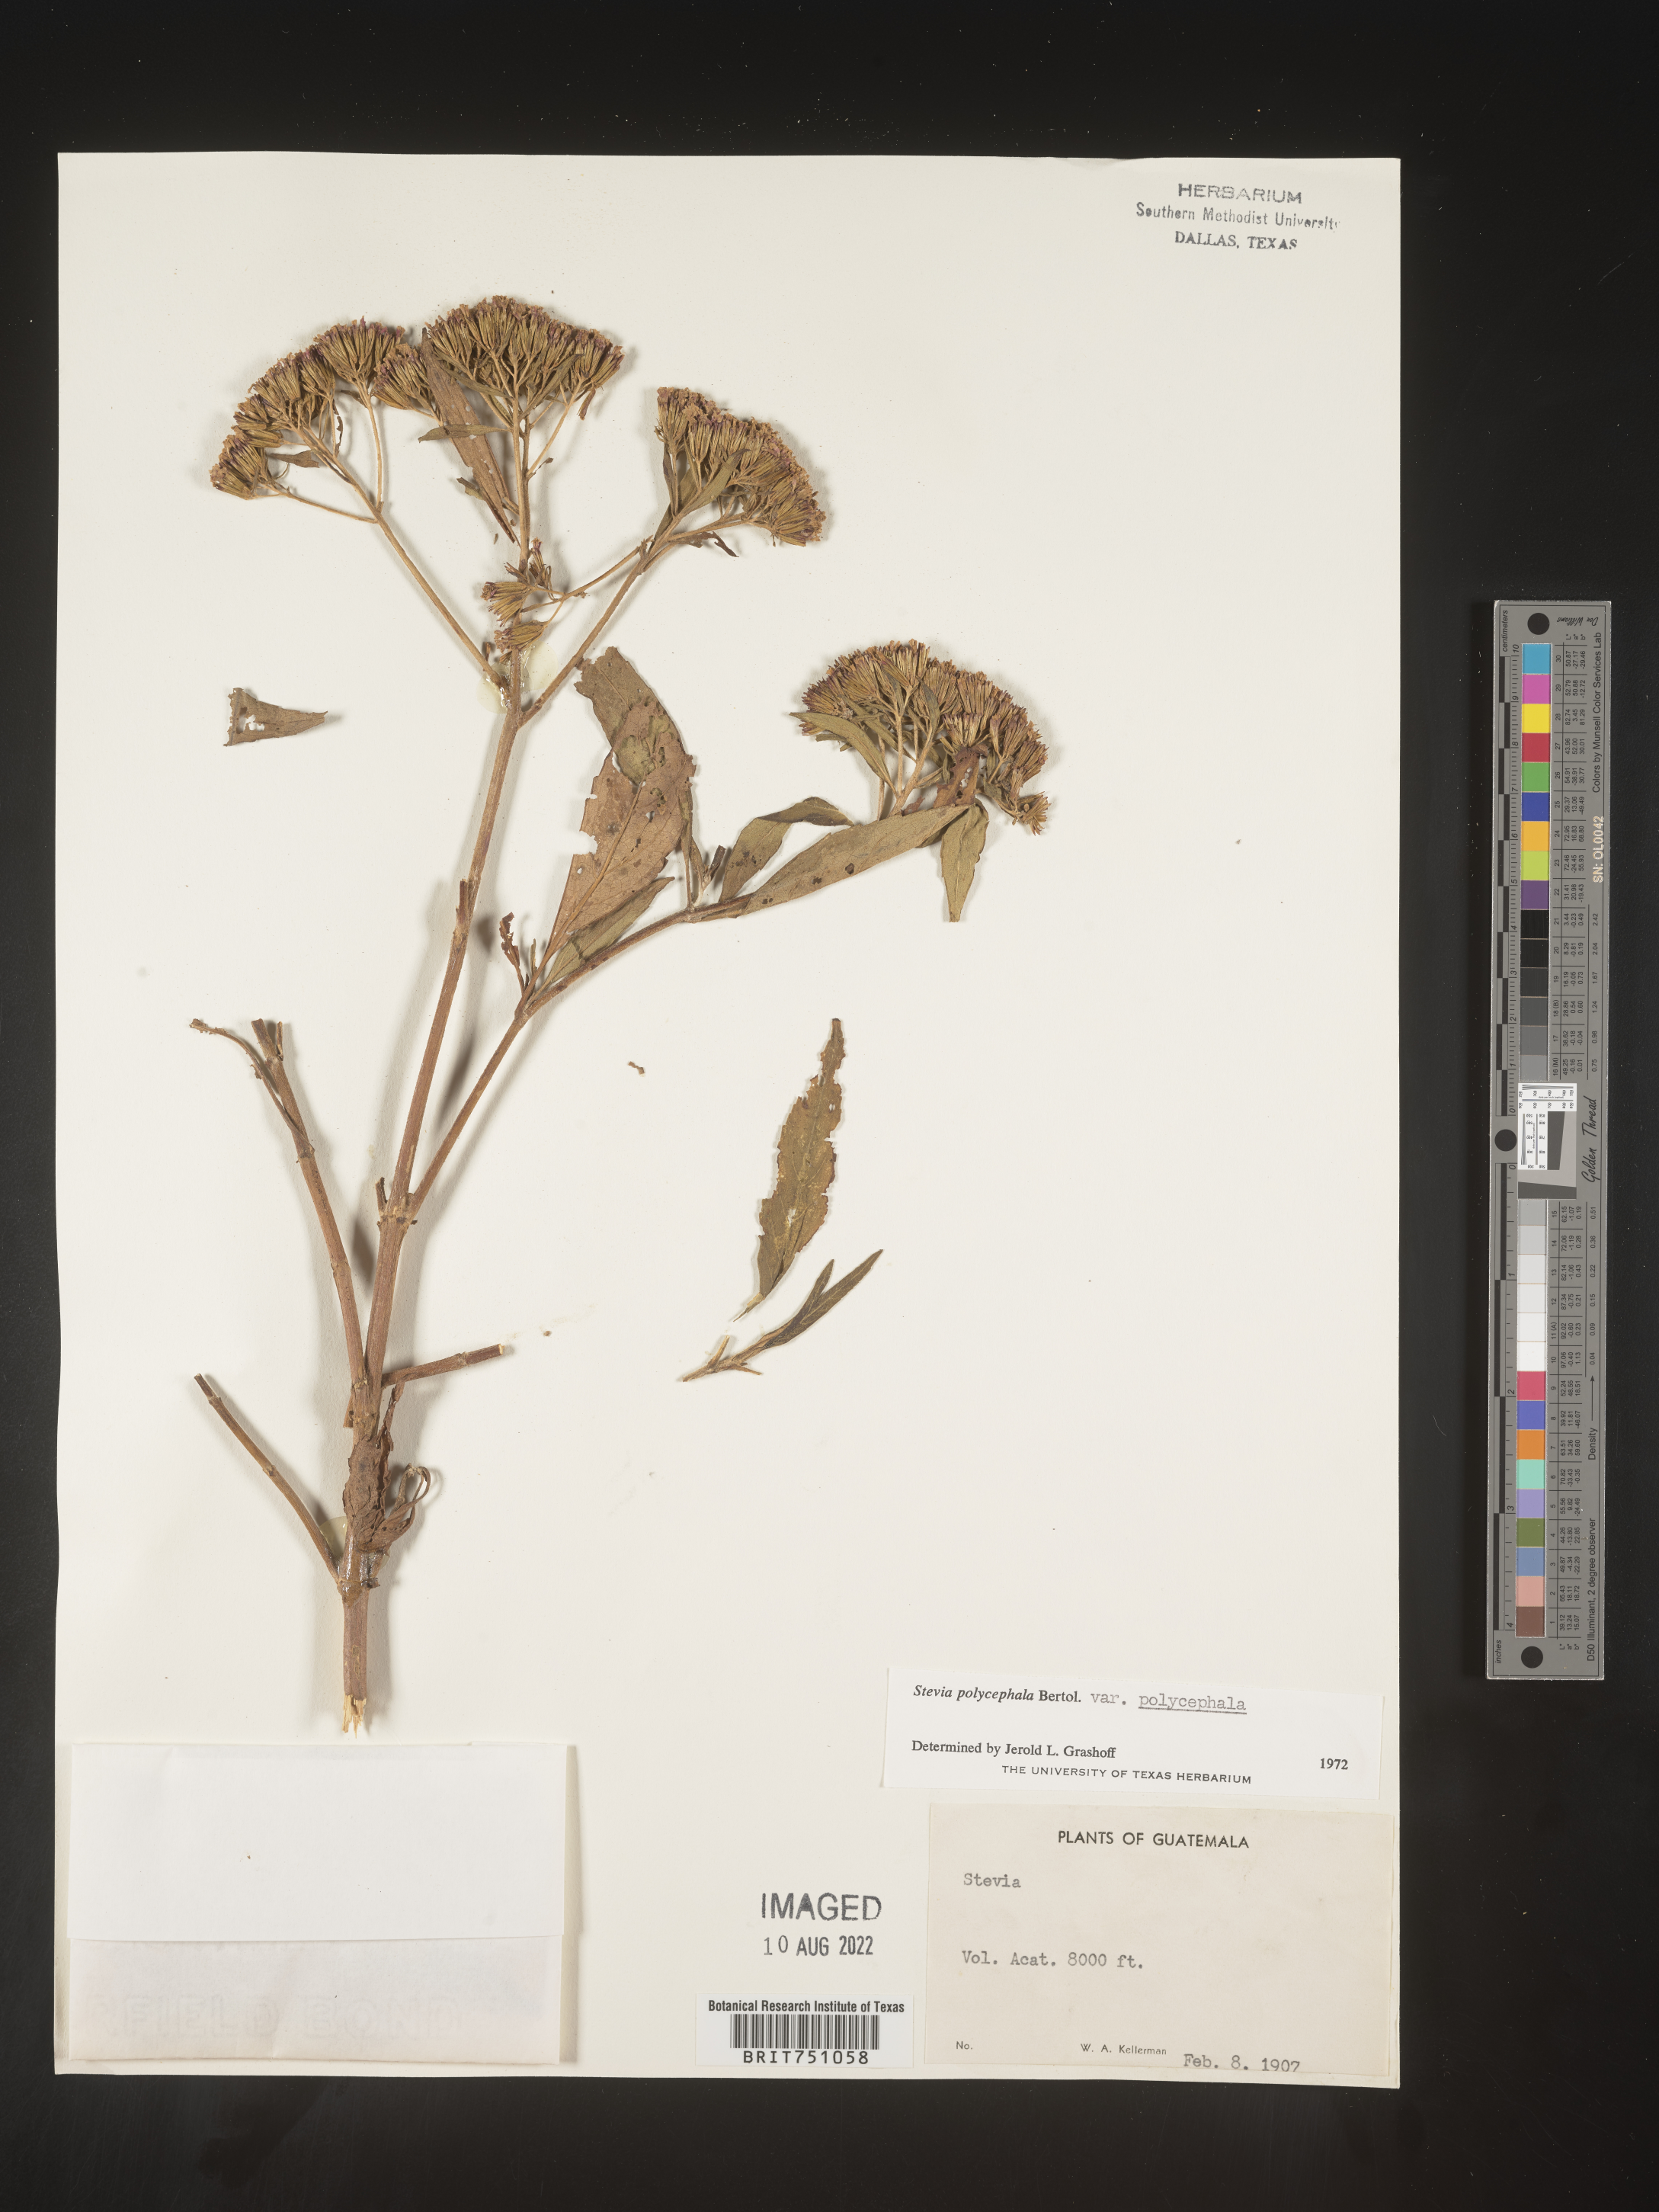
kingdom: Plantae
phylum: Tracheophyta
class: Magnoliopsida
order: Asterales
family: Asteraceae
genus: Stevia
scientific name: Stevia
